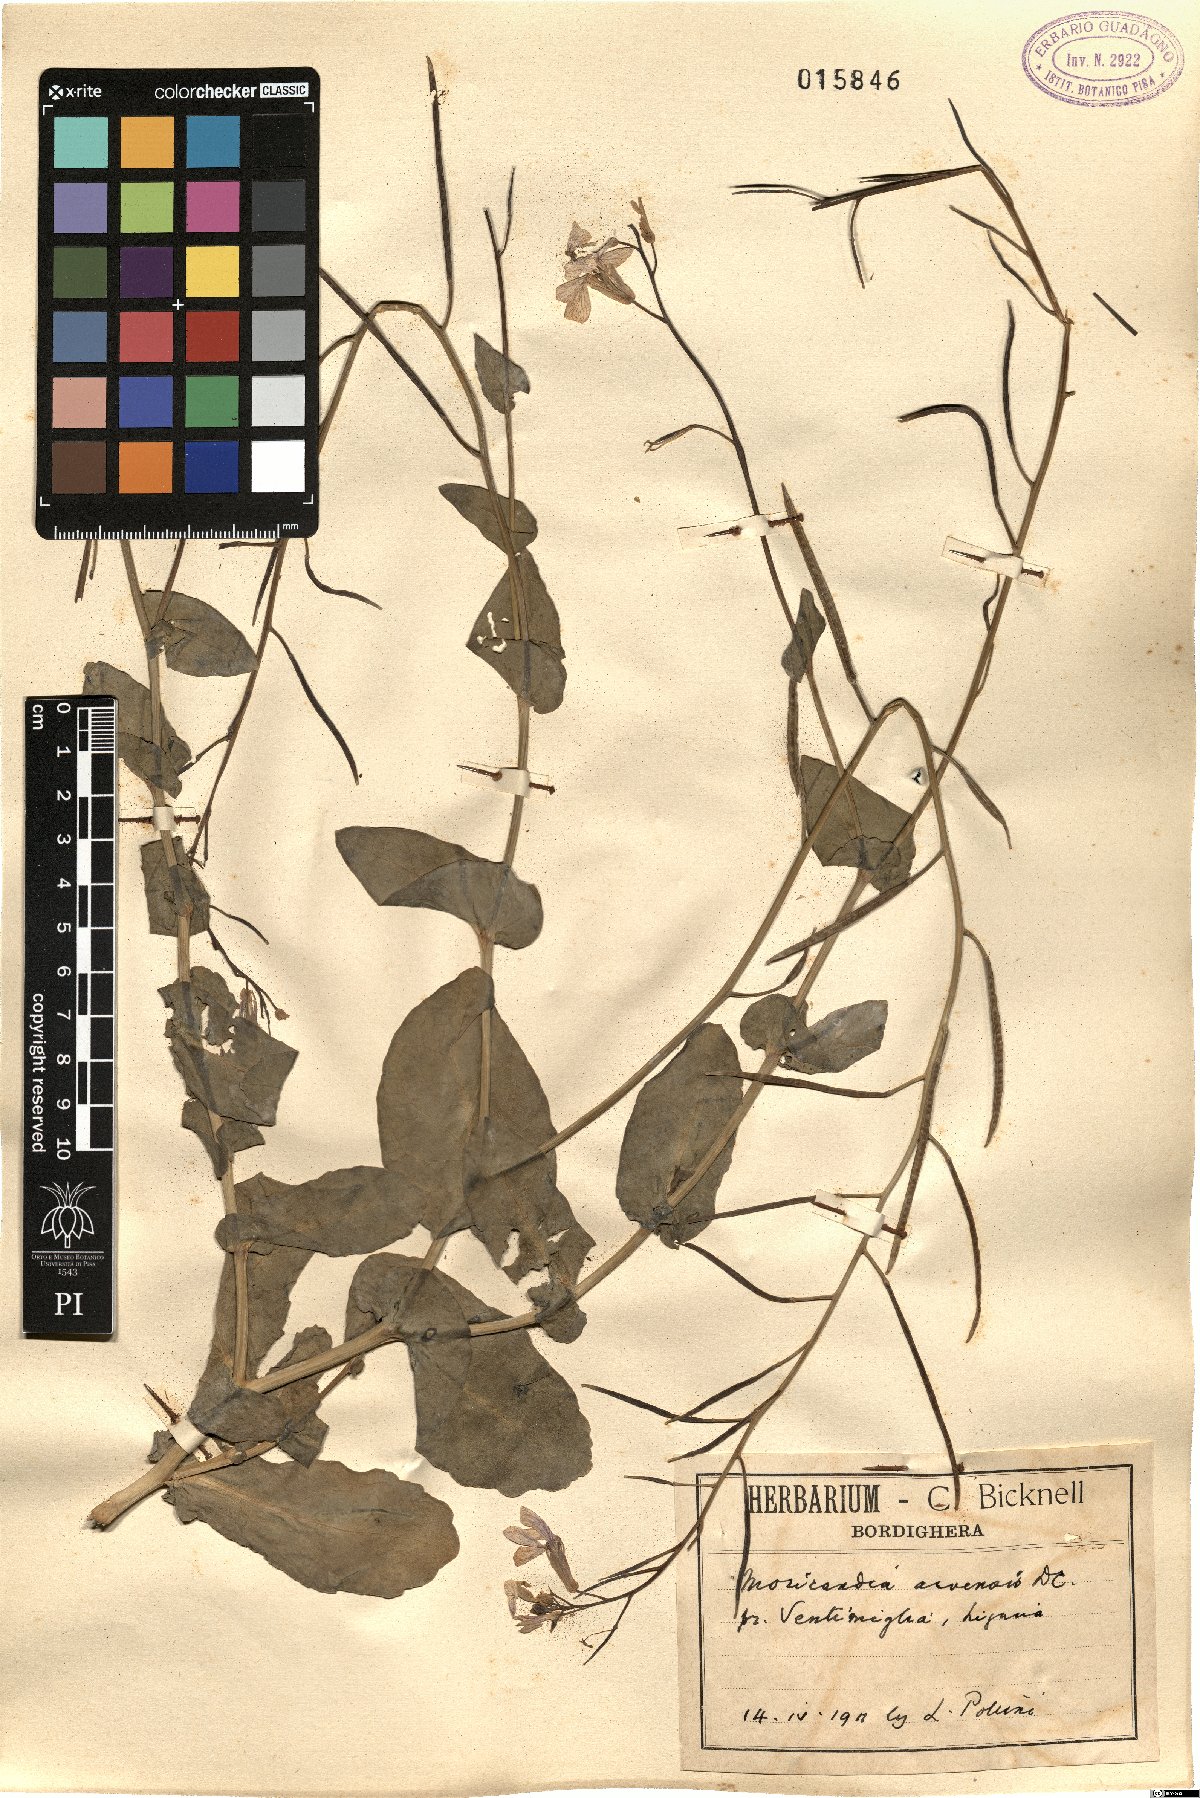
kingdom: Plantae
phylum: Tracheophyta
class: Magnoliopsida
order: Brassicales
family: Brassicaceae
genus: Moricandia
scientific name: Moricandia arvensis
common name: Purple mistress
